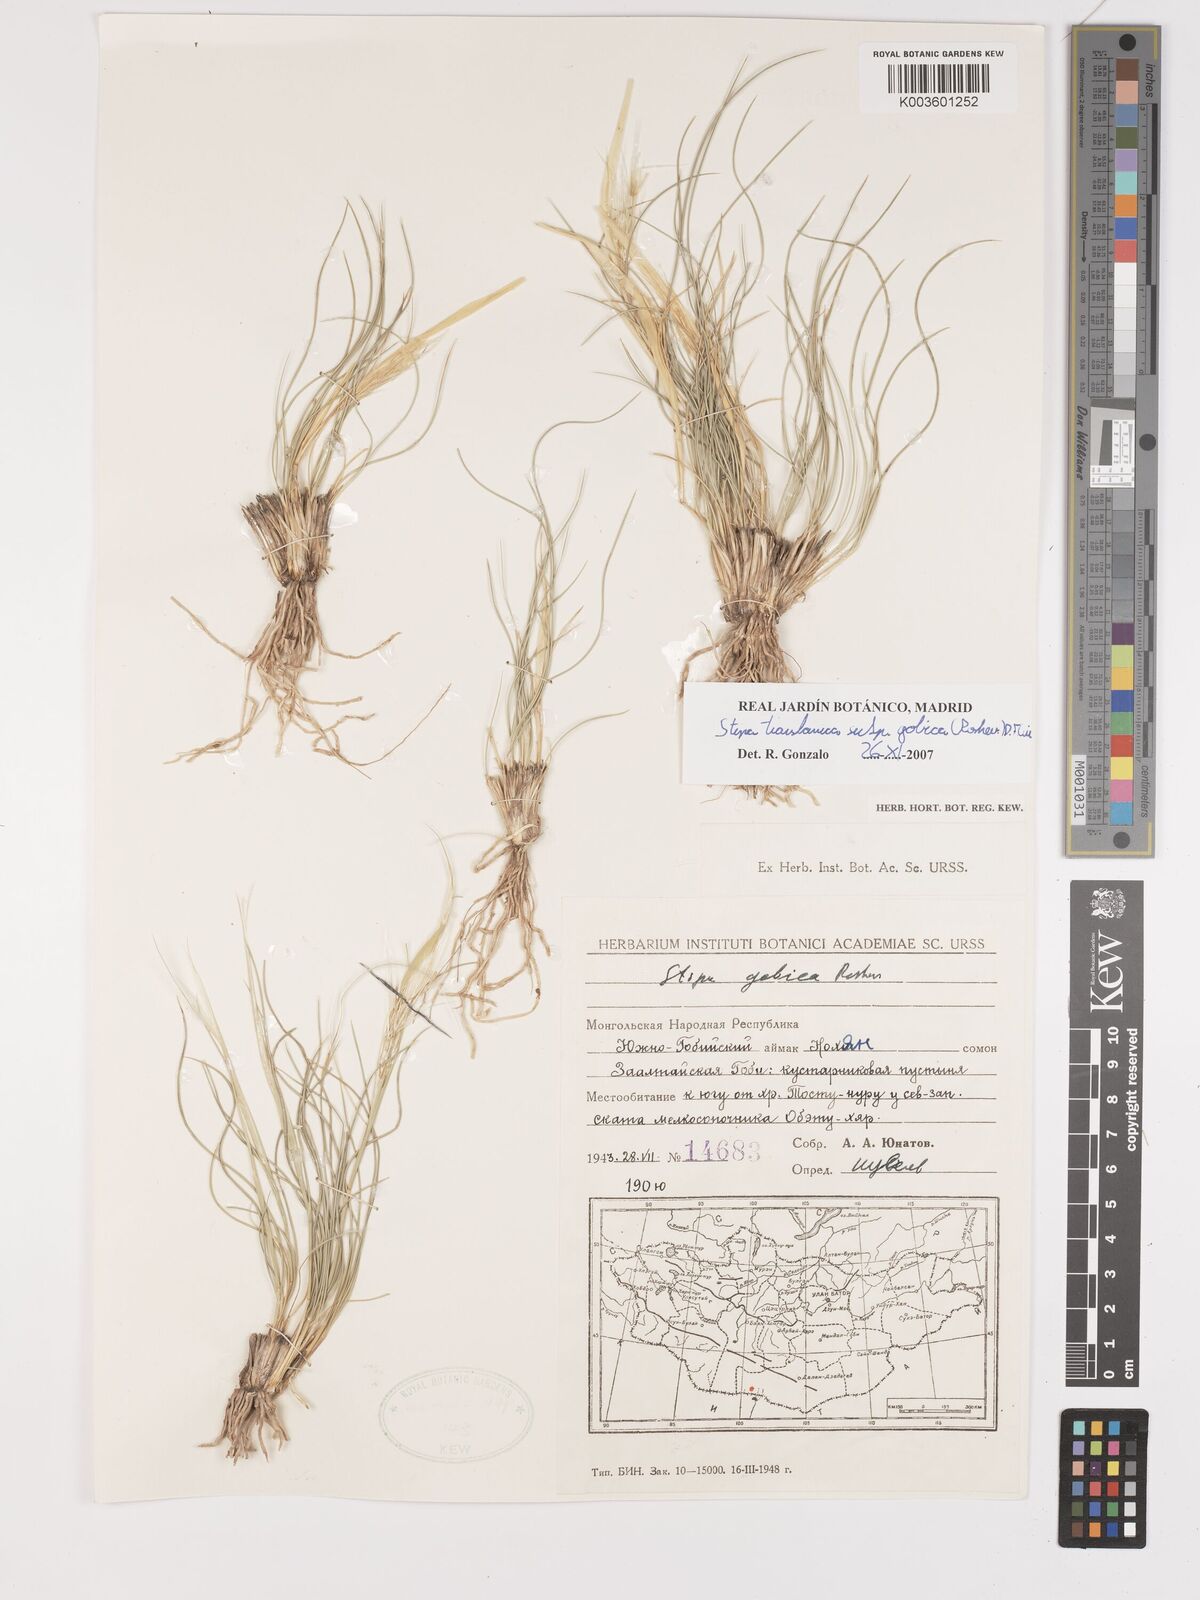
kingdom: Plantae
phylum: Tracheophyta
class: Liliopsida
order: Poales
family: Poaceae
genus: Stipa
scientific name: Stipa tianschanica
